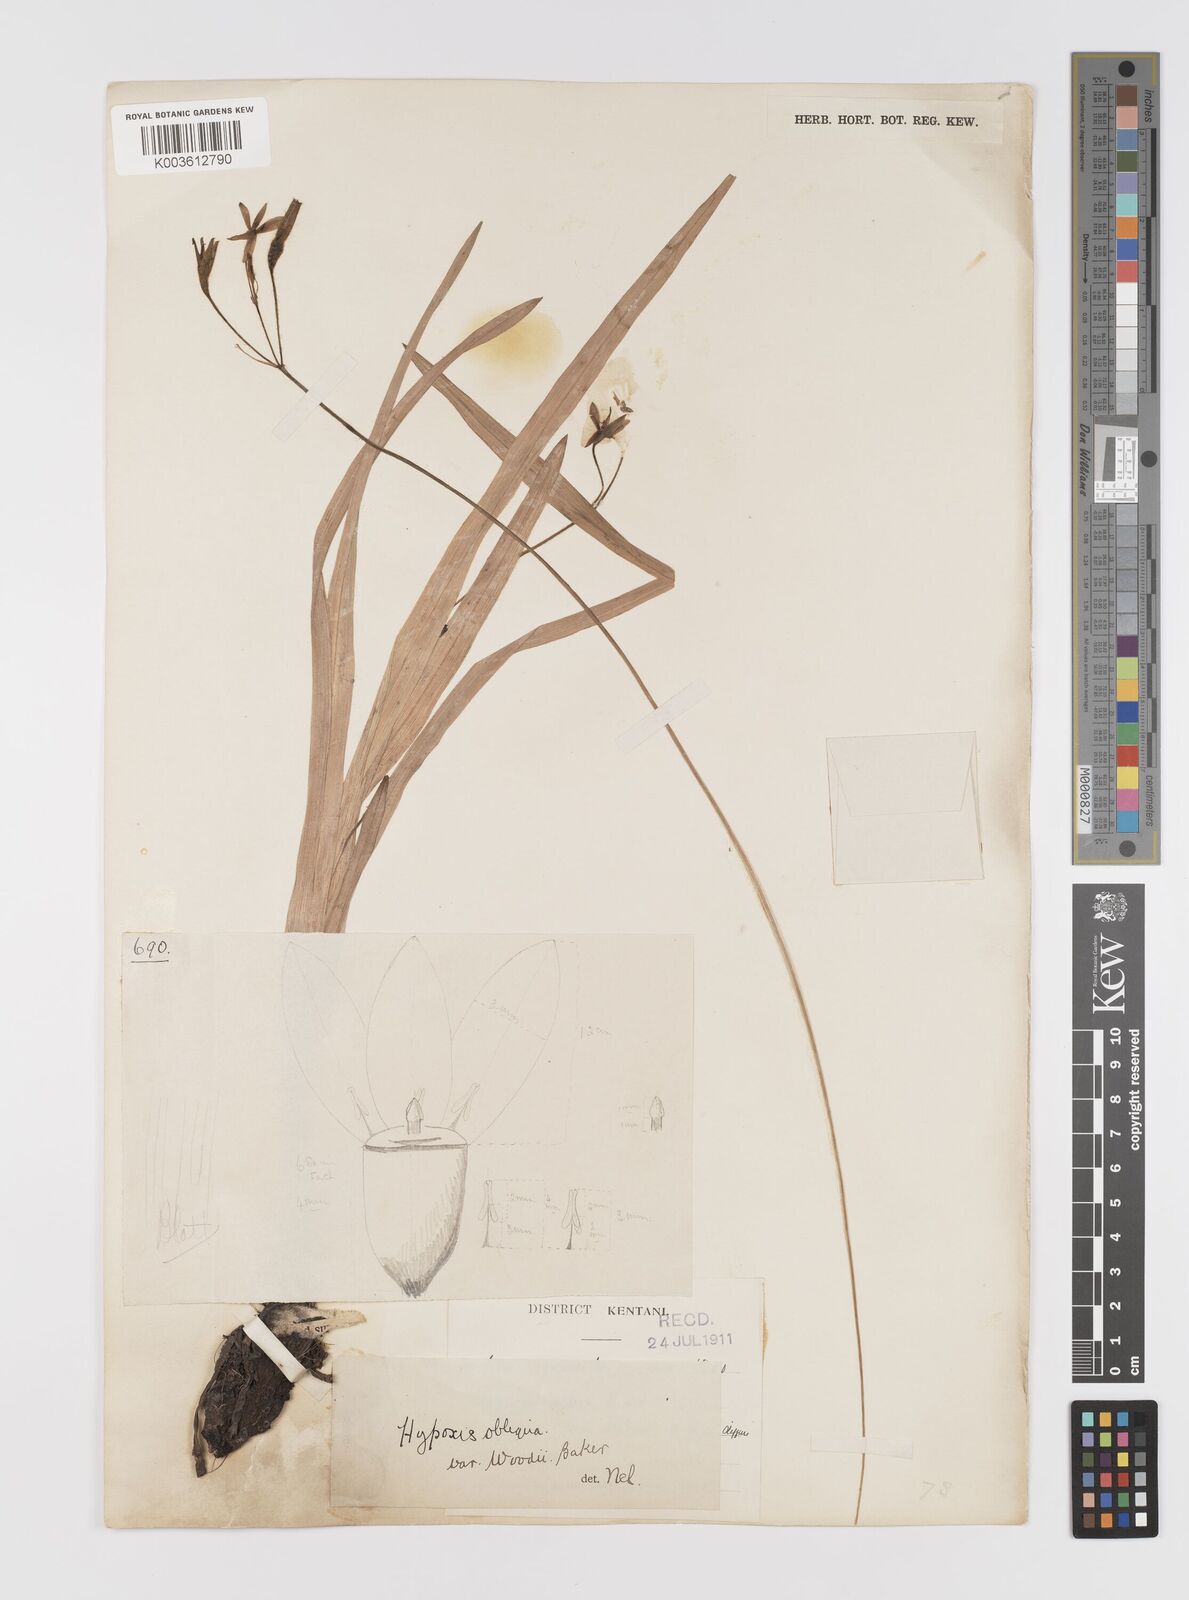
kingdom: Plantae
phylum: Tracheophyta
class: Liliopsida
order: Asparagales
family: Hypoxidaceae
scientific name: Hypoxidaceae
